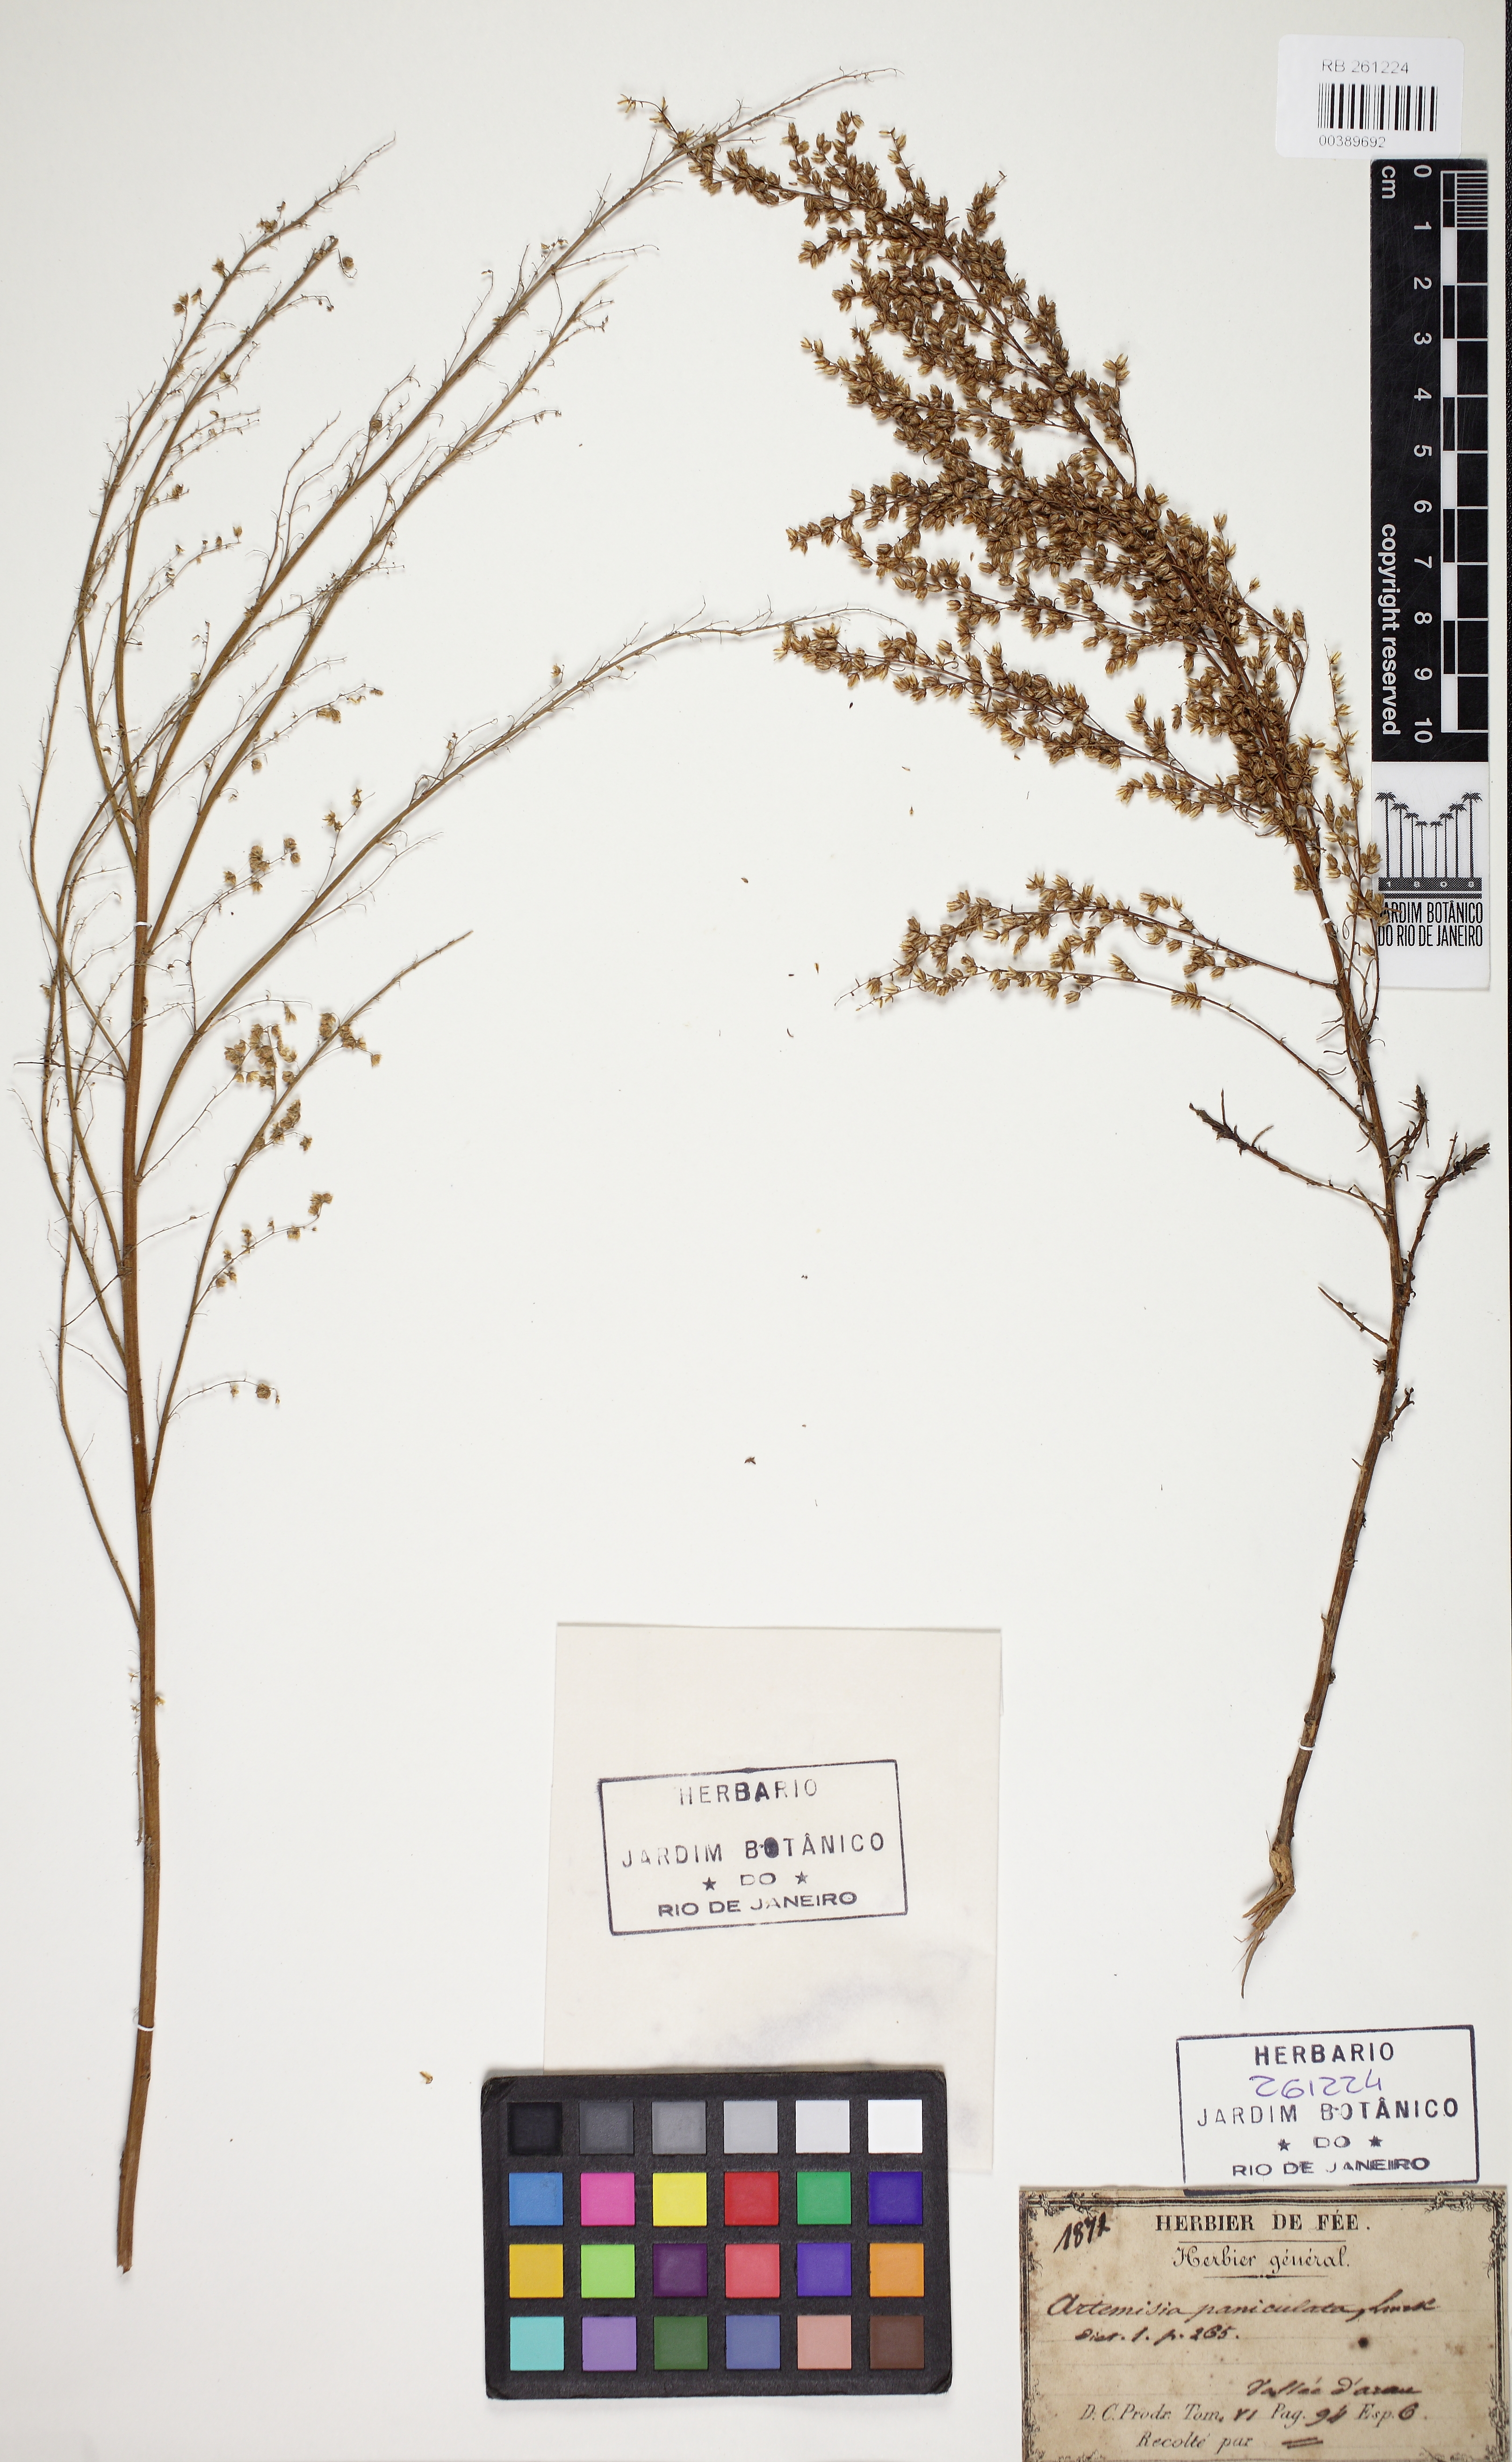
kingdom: Plantae
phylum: Tracheophyta
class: Magnoliopsida
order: Asterales
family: Asteraceae
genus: Artemisia
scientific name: Artemisia
